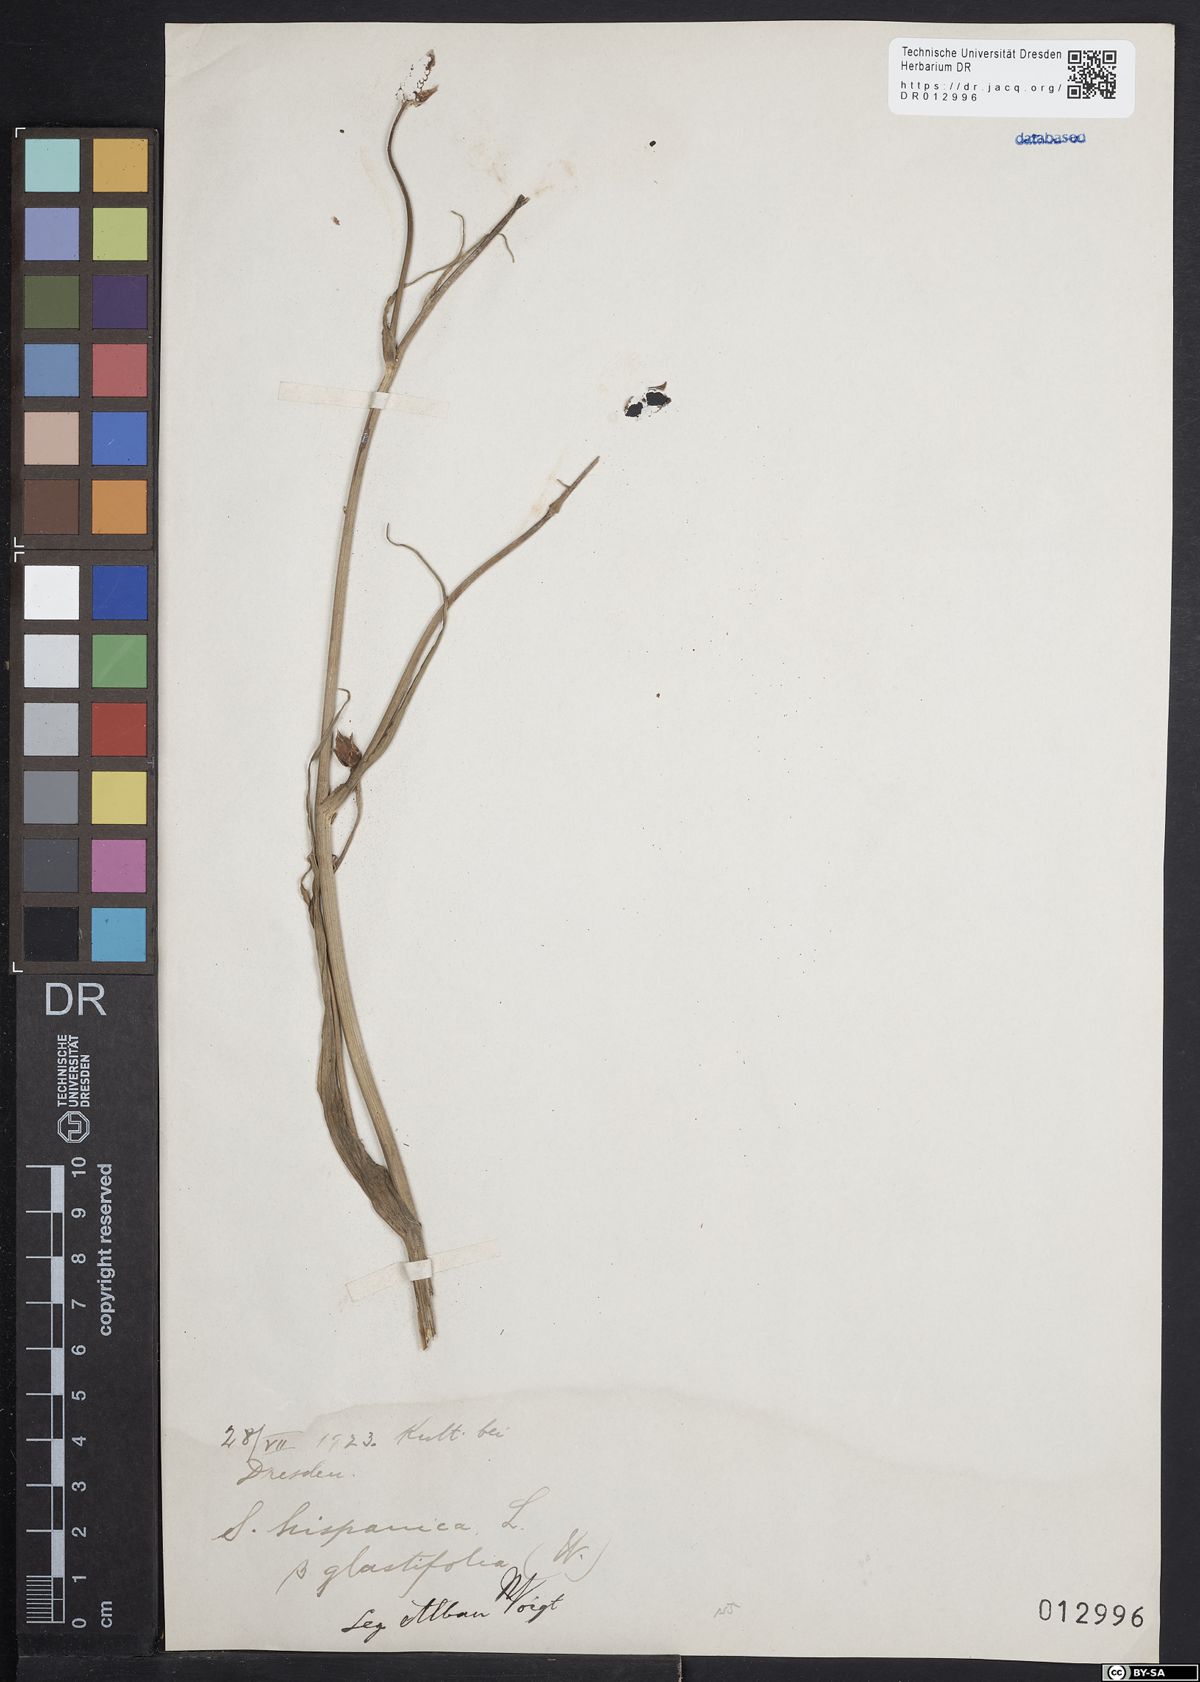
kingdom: Plantae
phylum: Tracheophyta
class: Magnoliopsida
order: Asterales
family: Asteraceae
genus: Pseudopodospermum
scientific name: Pseudopodospermum hispanicum
